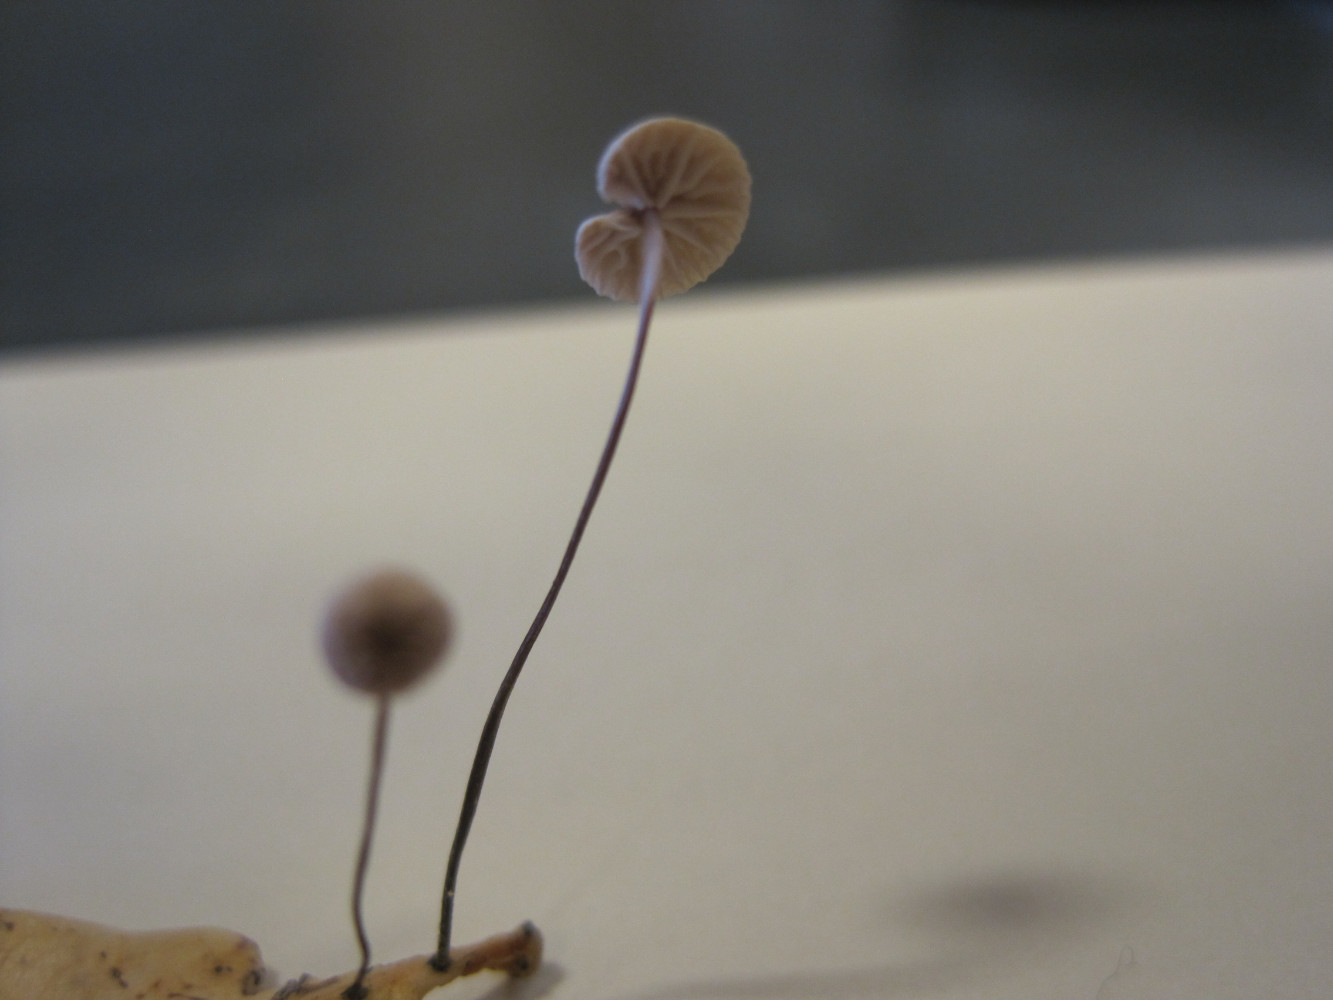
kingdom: Fungi
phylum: Basidiomycota
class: Agaricomycetes
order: Agaricales
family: Omphalotaceae
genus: Collybiopsis
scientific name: Collybiopsis quercophila
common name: egeblads-bruskhat
